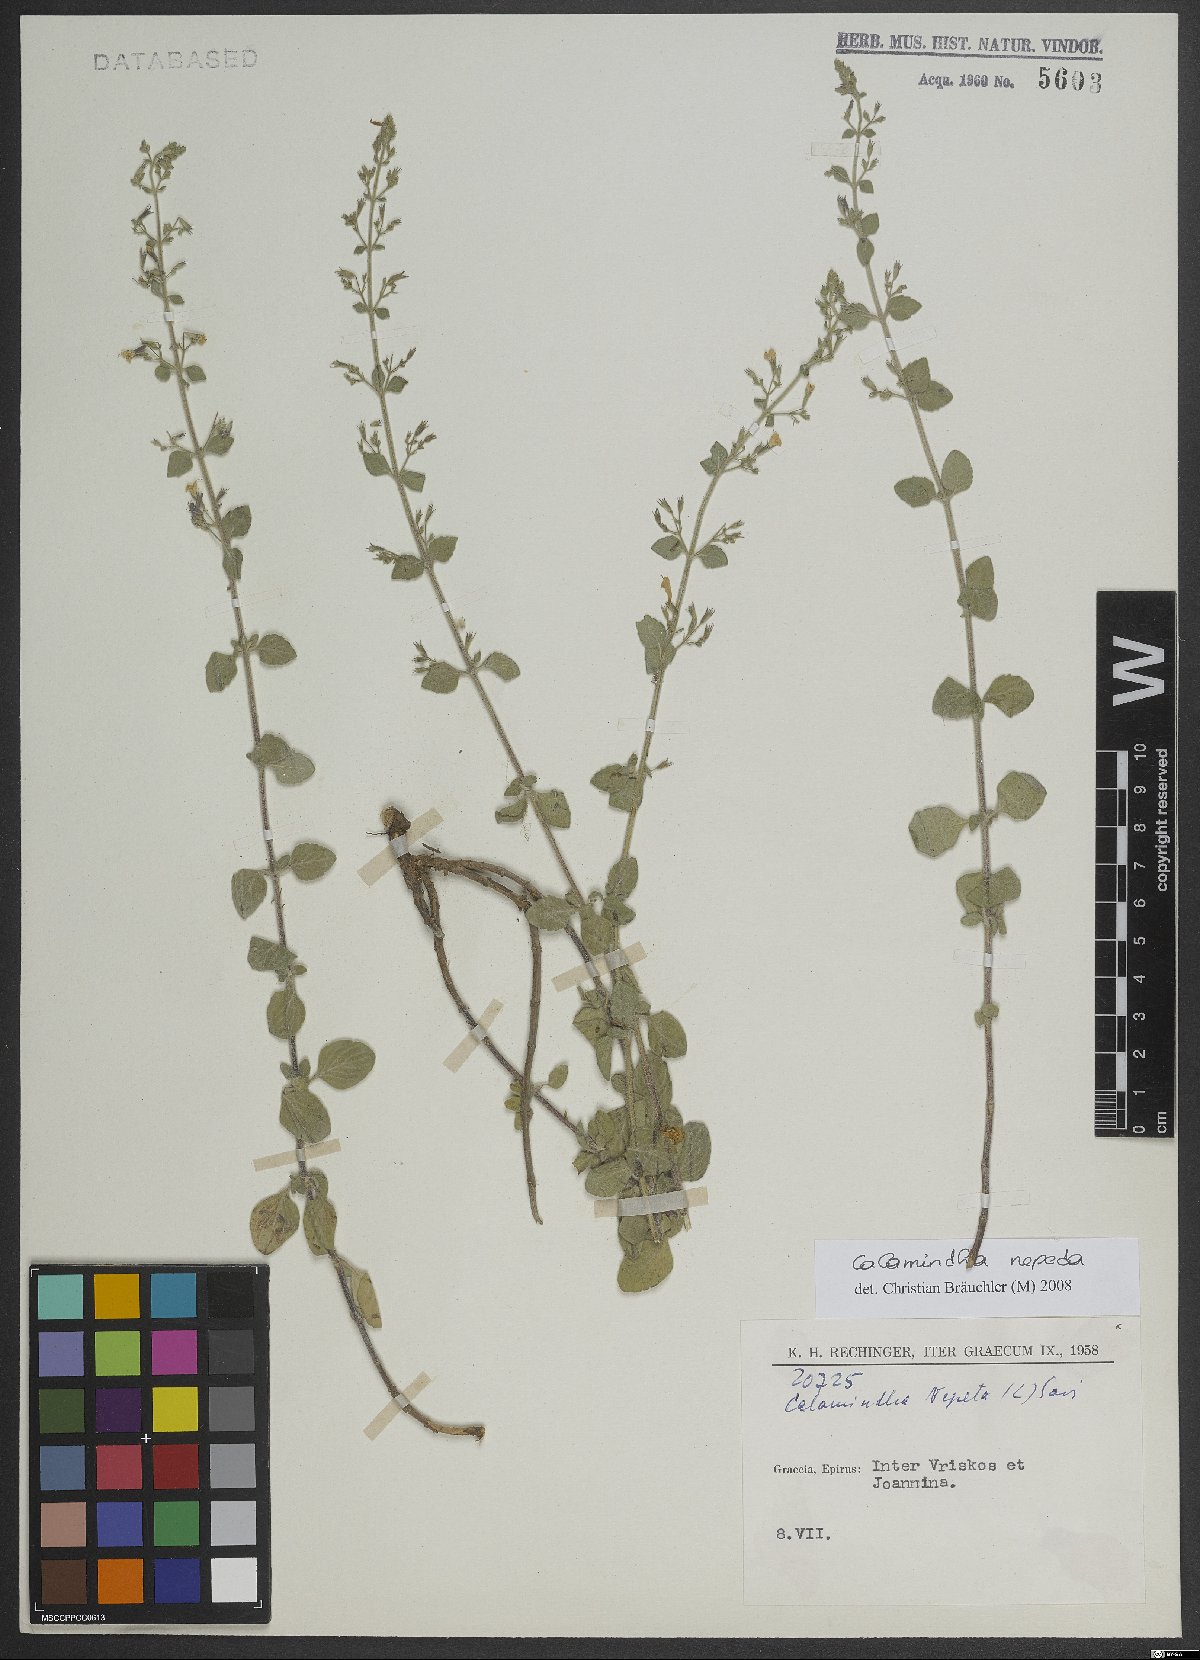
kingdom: Plantae
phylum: Tracheophyta
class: Magnoliopsida
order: Lamiales
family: Lamiaceae
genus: Clinopodium
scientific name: Clinopodium nepeta
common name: Lesser calamint
